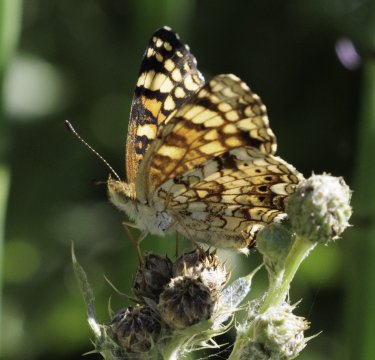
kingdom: Animalia
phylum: Arthropoda
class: Insecta
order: Lepidoptera
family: Nymphalidae
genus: Eresia
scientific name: Eresia aveyrona
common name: Mylitta Crescent
